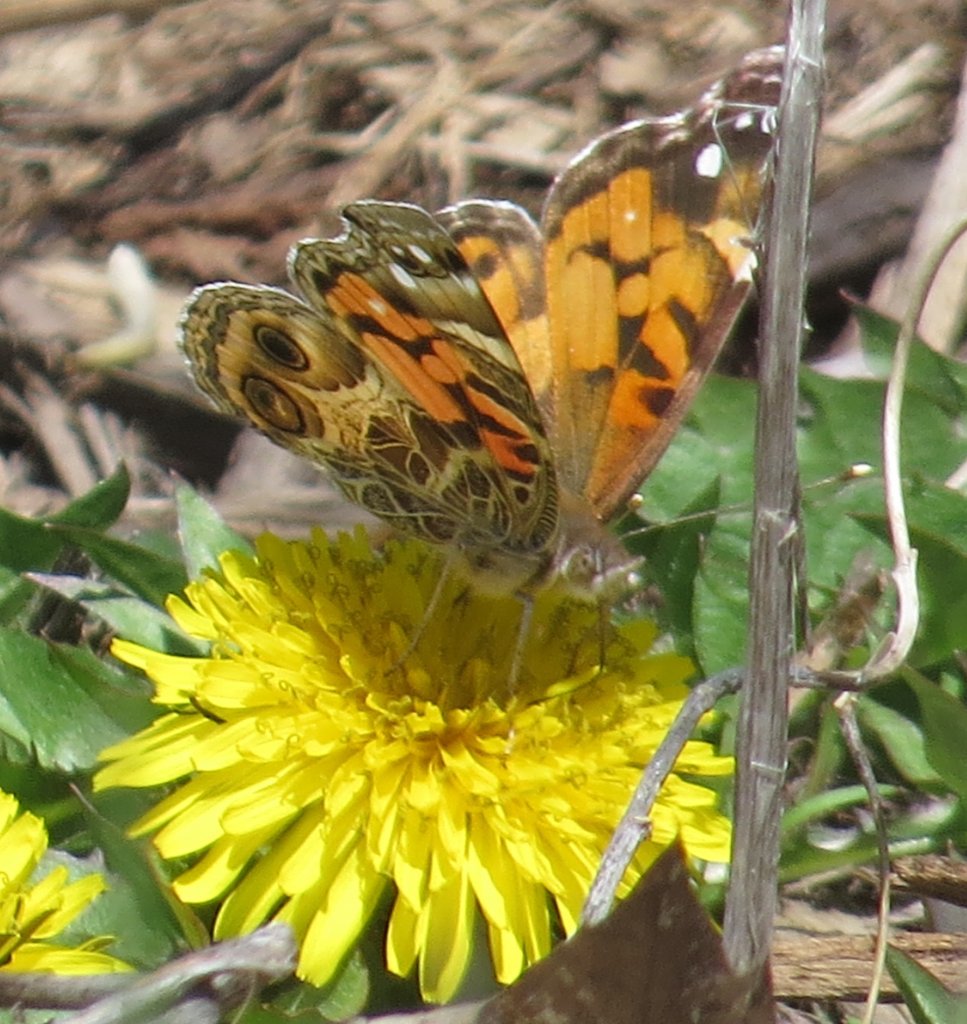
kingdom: Animalia
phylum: Arthropoda
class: Insecta
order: Lepidoptera
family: Nymphalidae
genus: Vanessa
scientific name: Vanessa virginiensis
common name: American Lady
